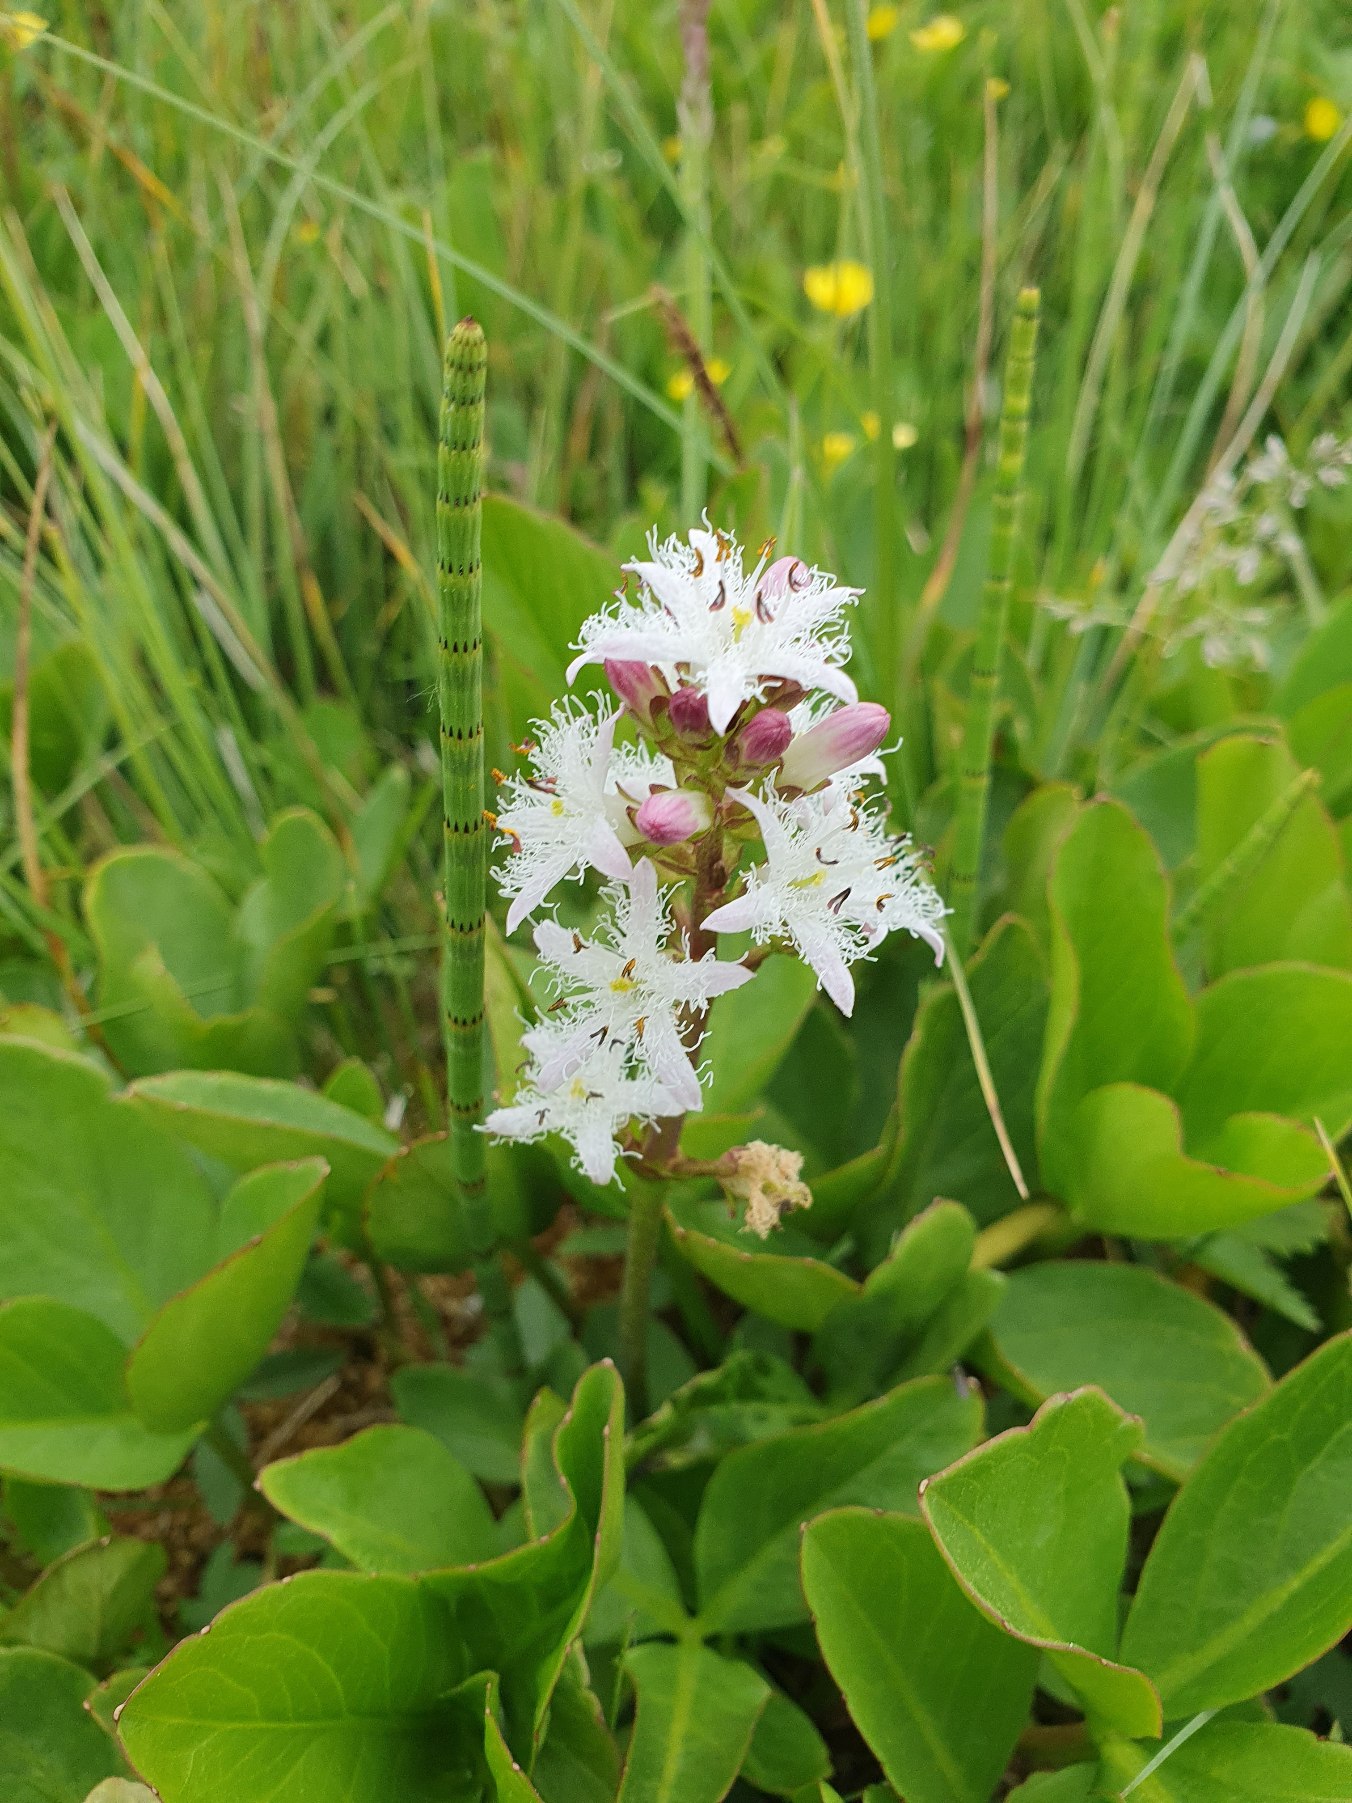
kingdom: Plantae
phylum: Tracheophyta
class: Magnoliopsida
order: Asterales
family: Menyanthaceae
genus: Menyanthes
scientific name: Menyanthes trifoliata
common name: Bukkeblad
